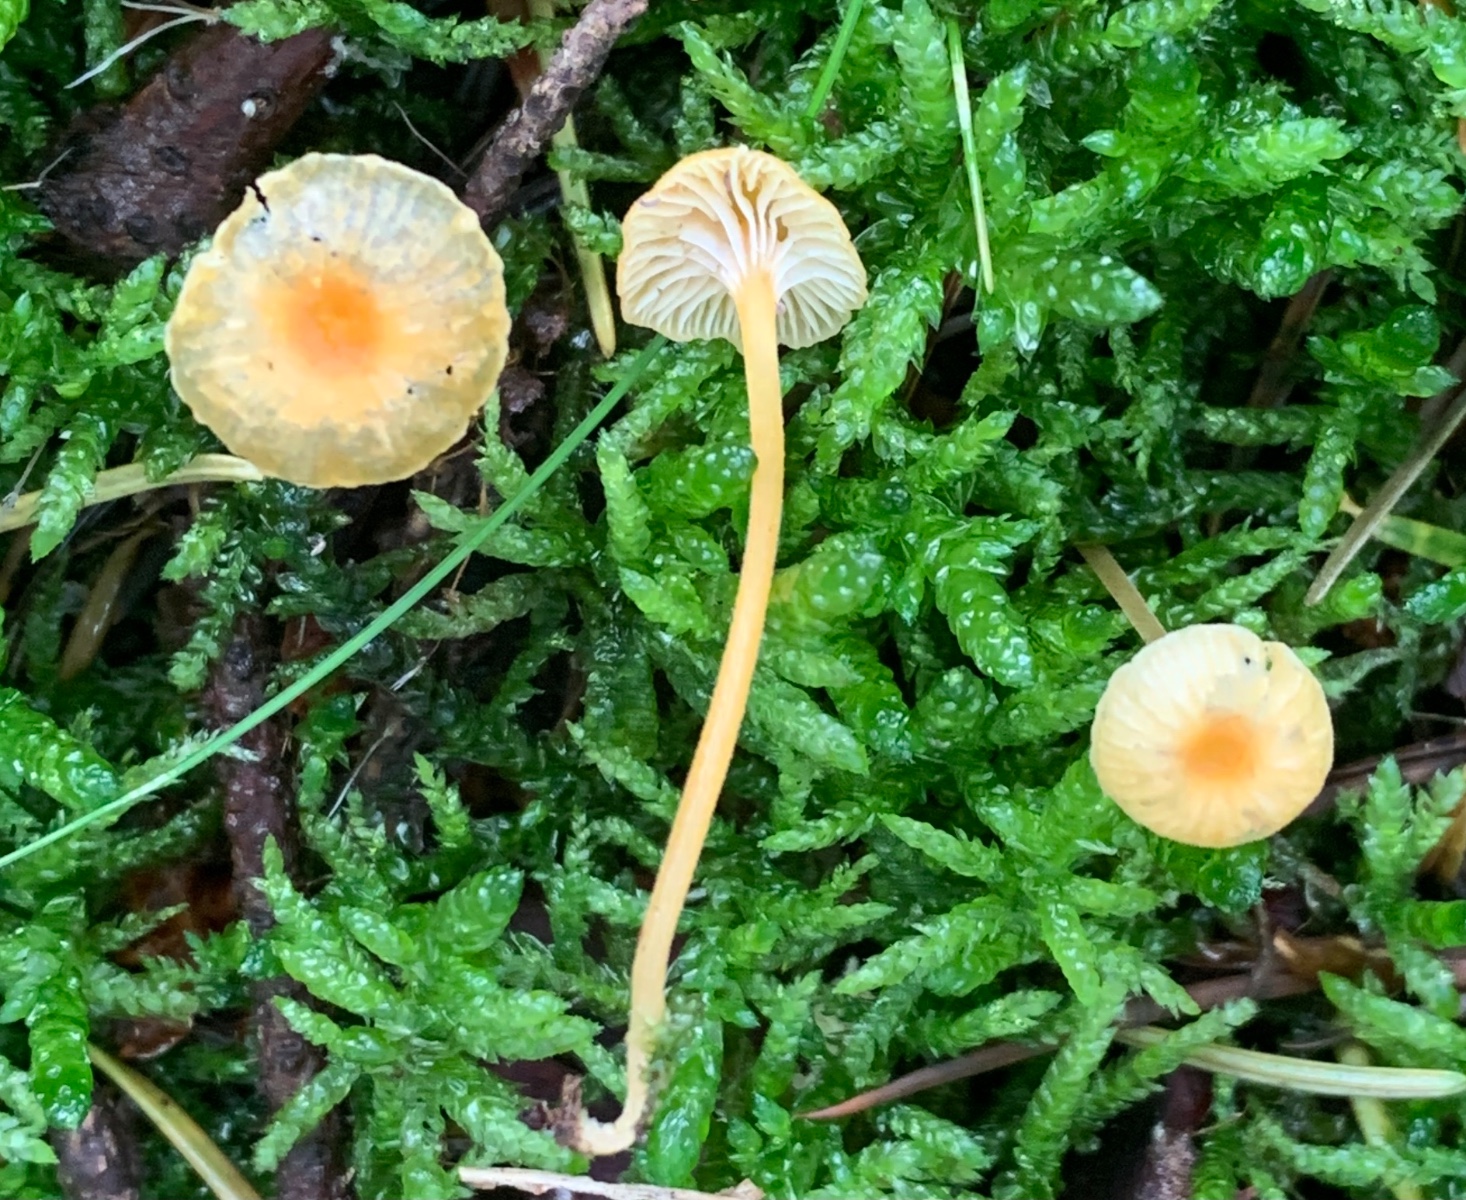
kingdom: Fungi
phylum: Basidiomycota
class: Agaricomycetes
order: Hymenochaetales
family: Rickenellaceae
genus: Rickenella
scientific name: Rickenella fibula
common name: orange mosnavlehat
